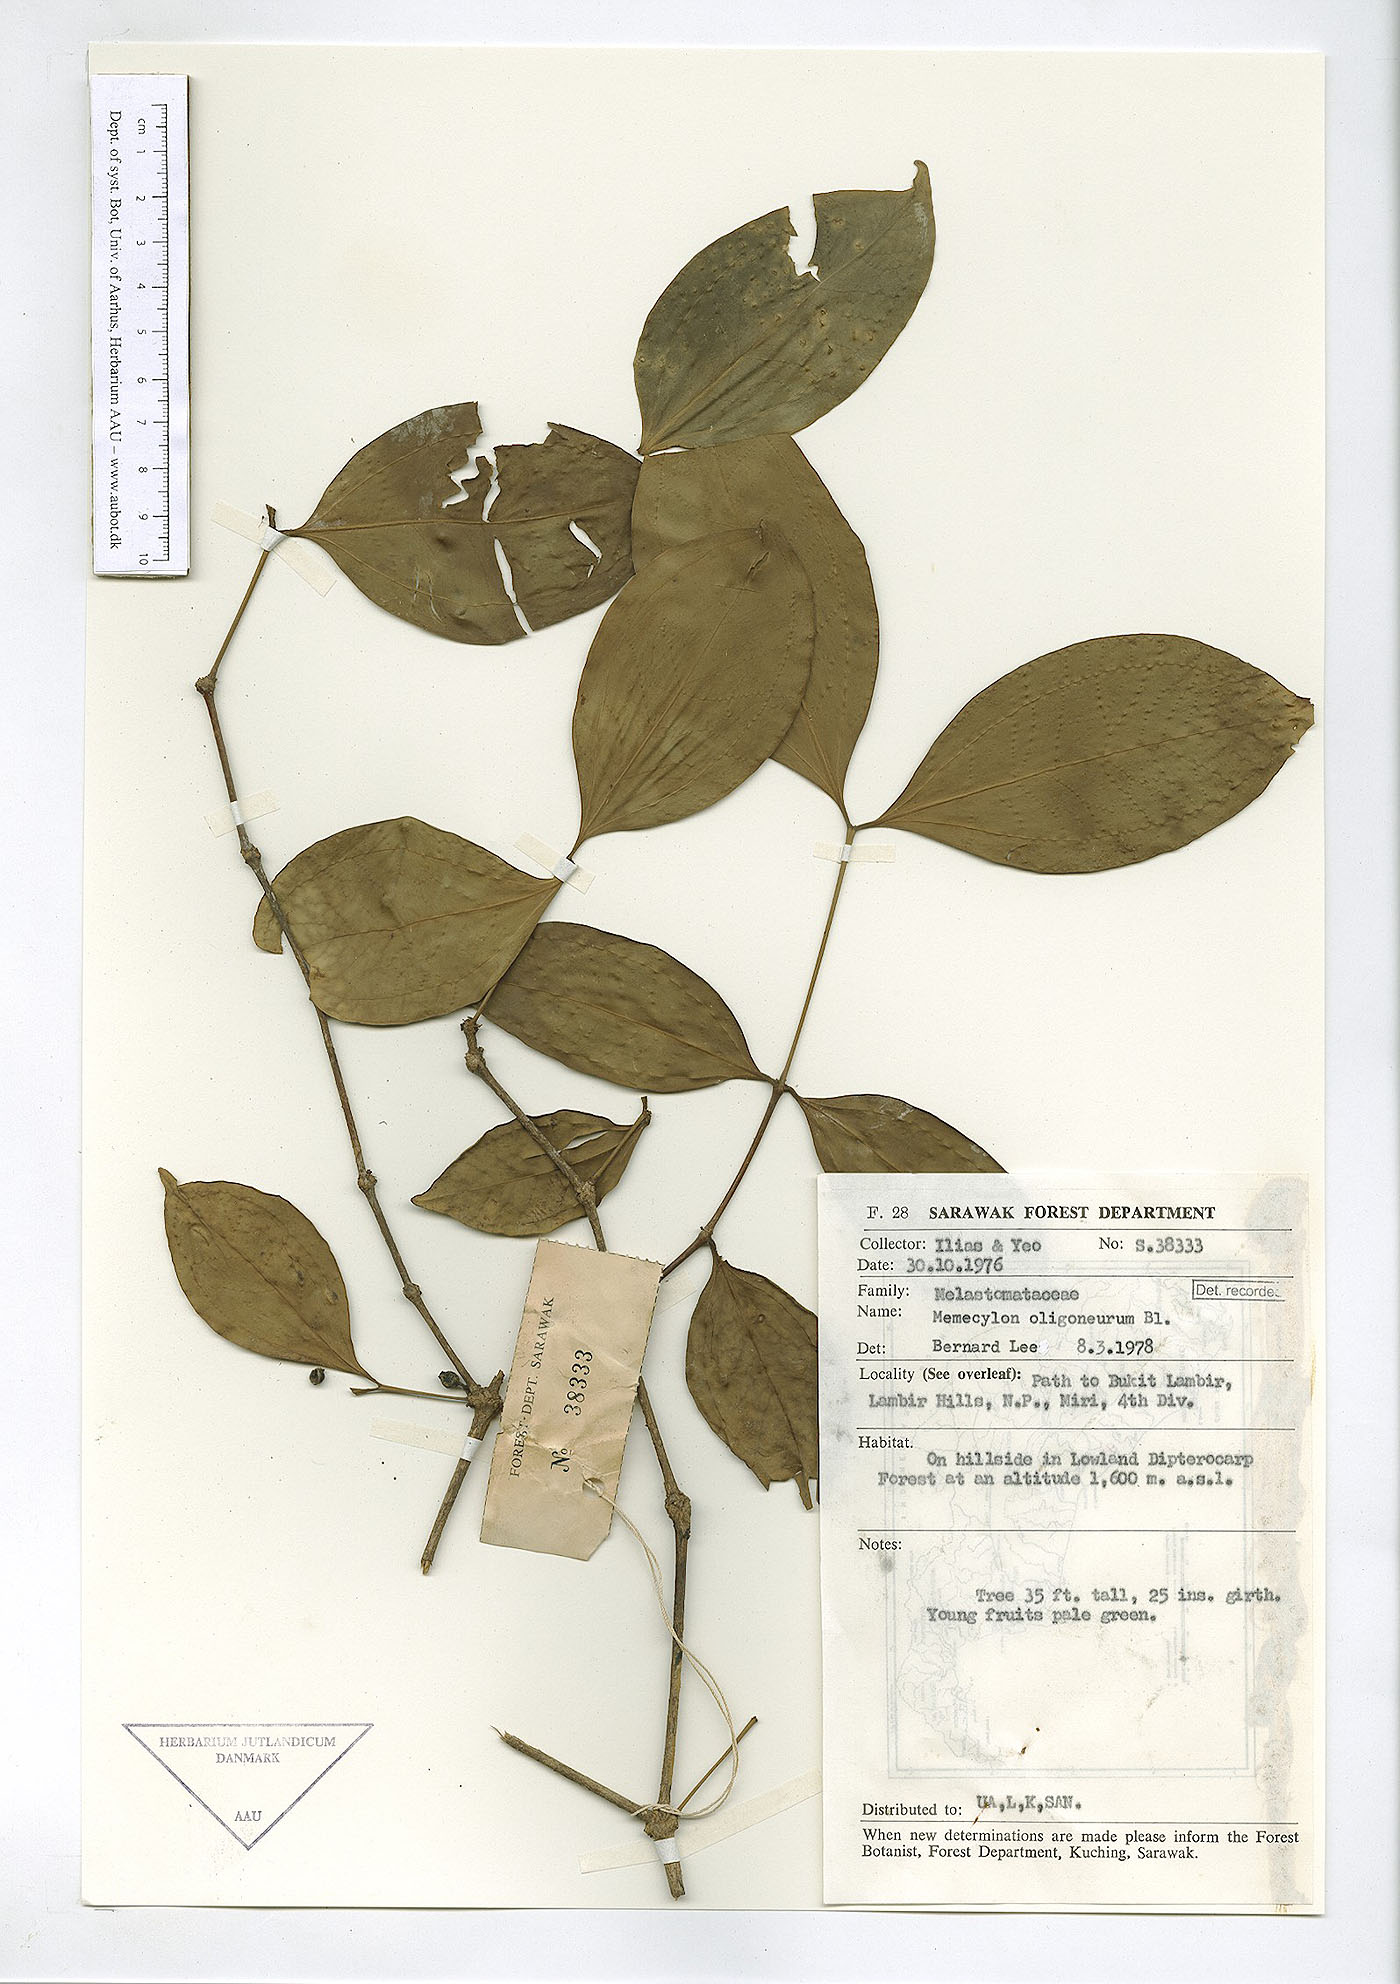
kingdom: Plantae
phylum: Tracheophyta
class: Magnoliopsida
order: Myrtales
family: Melastomataceae
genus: Lijndenia
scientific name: Lijndenia laurina
